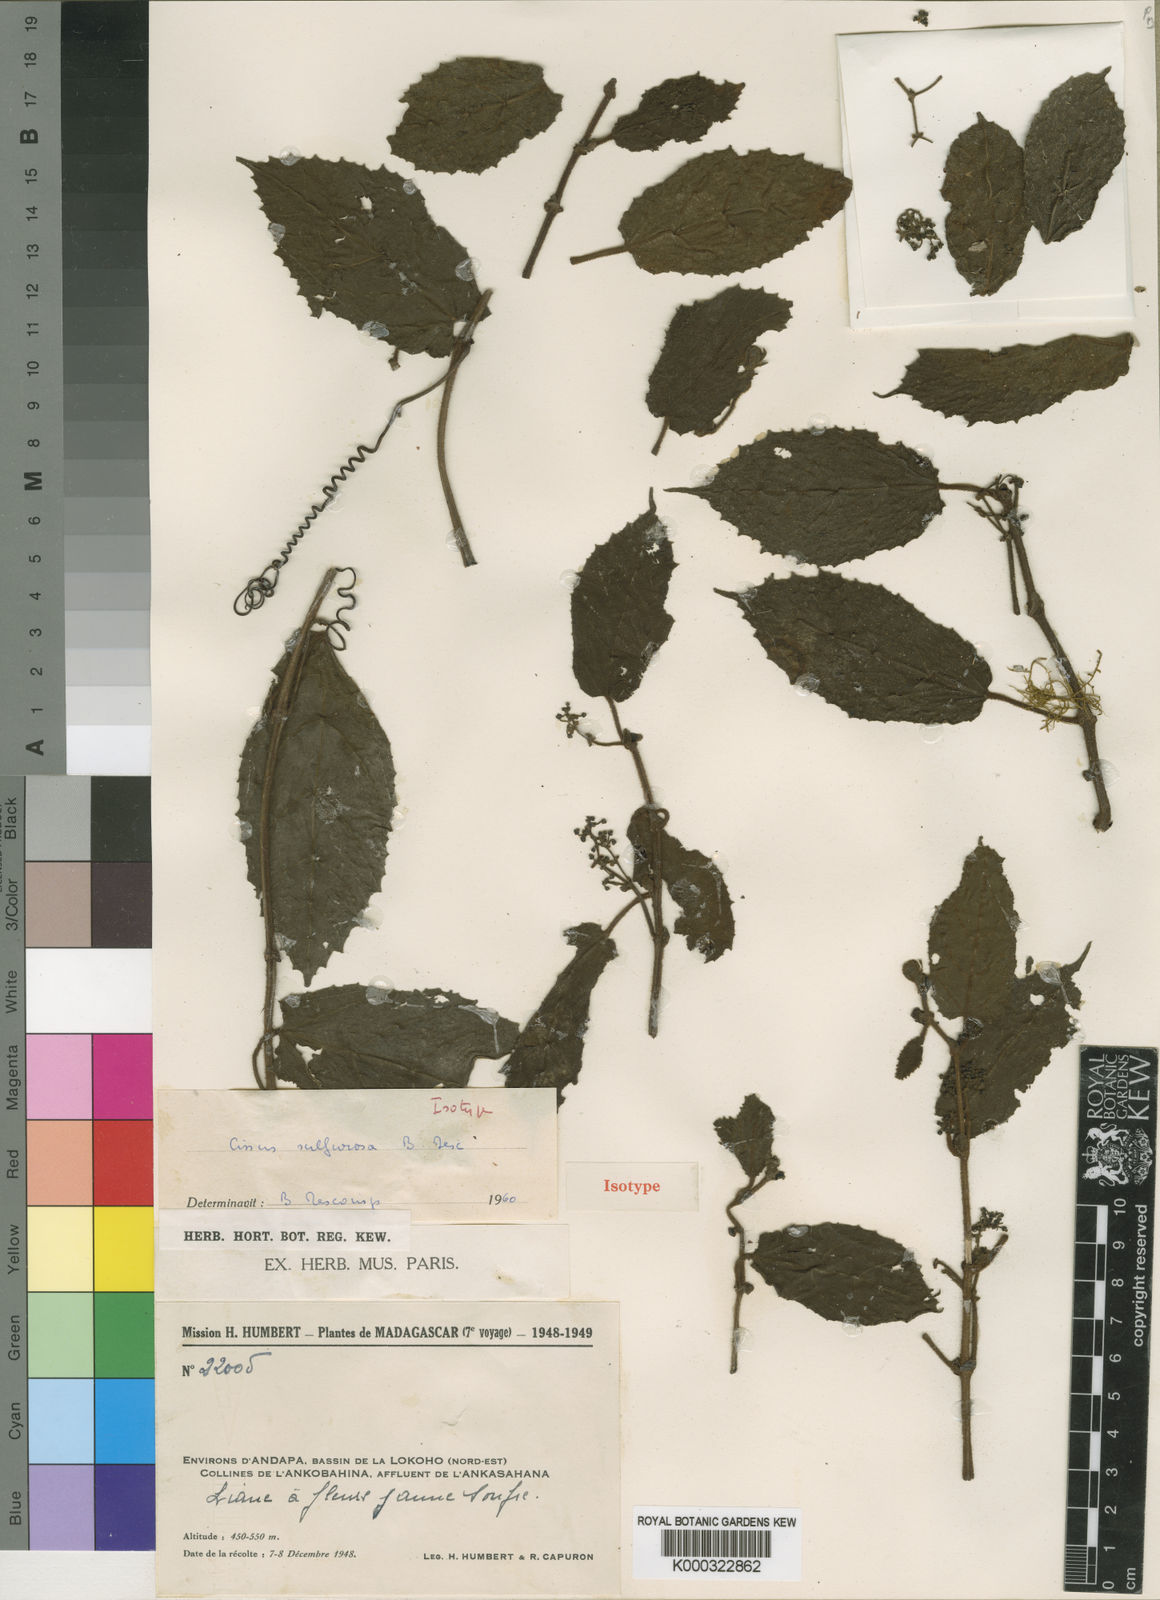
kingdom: Plantae
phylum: Tracheophyta
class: Magnoliopsida
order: Vitales
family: Vitaceae
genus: Cissus
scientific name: Cissus sulfurosa
